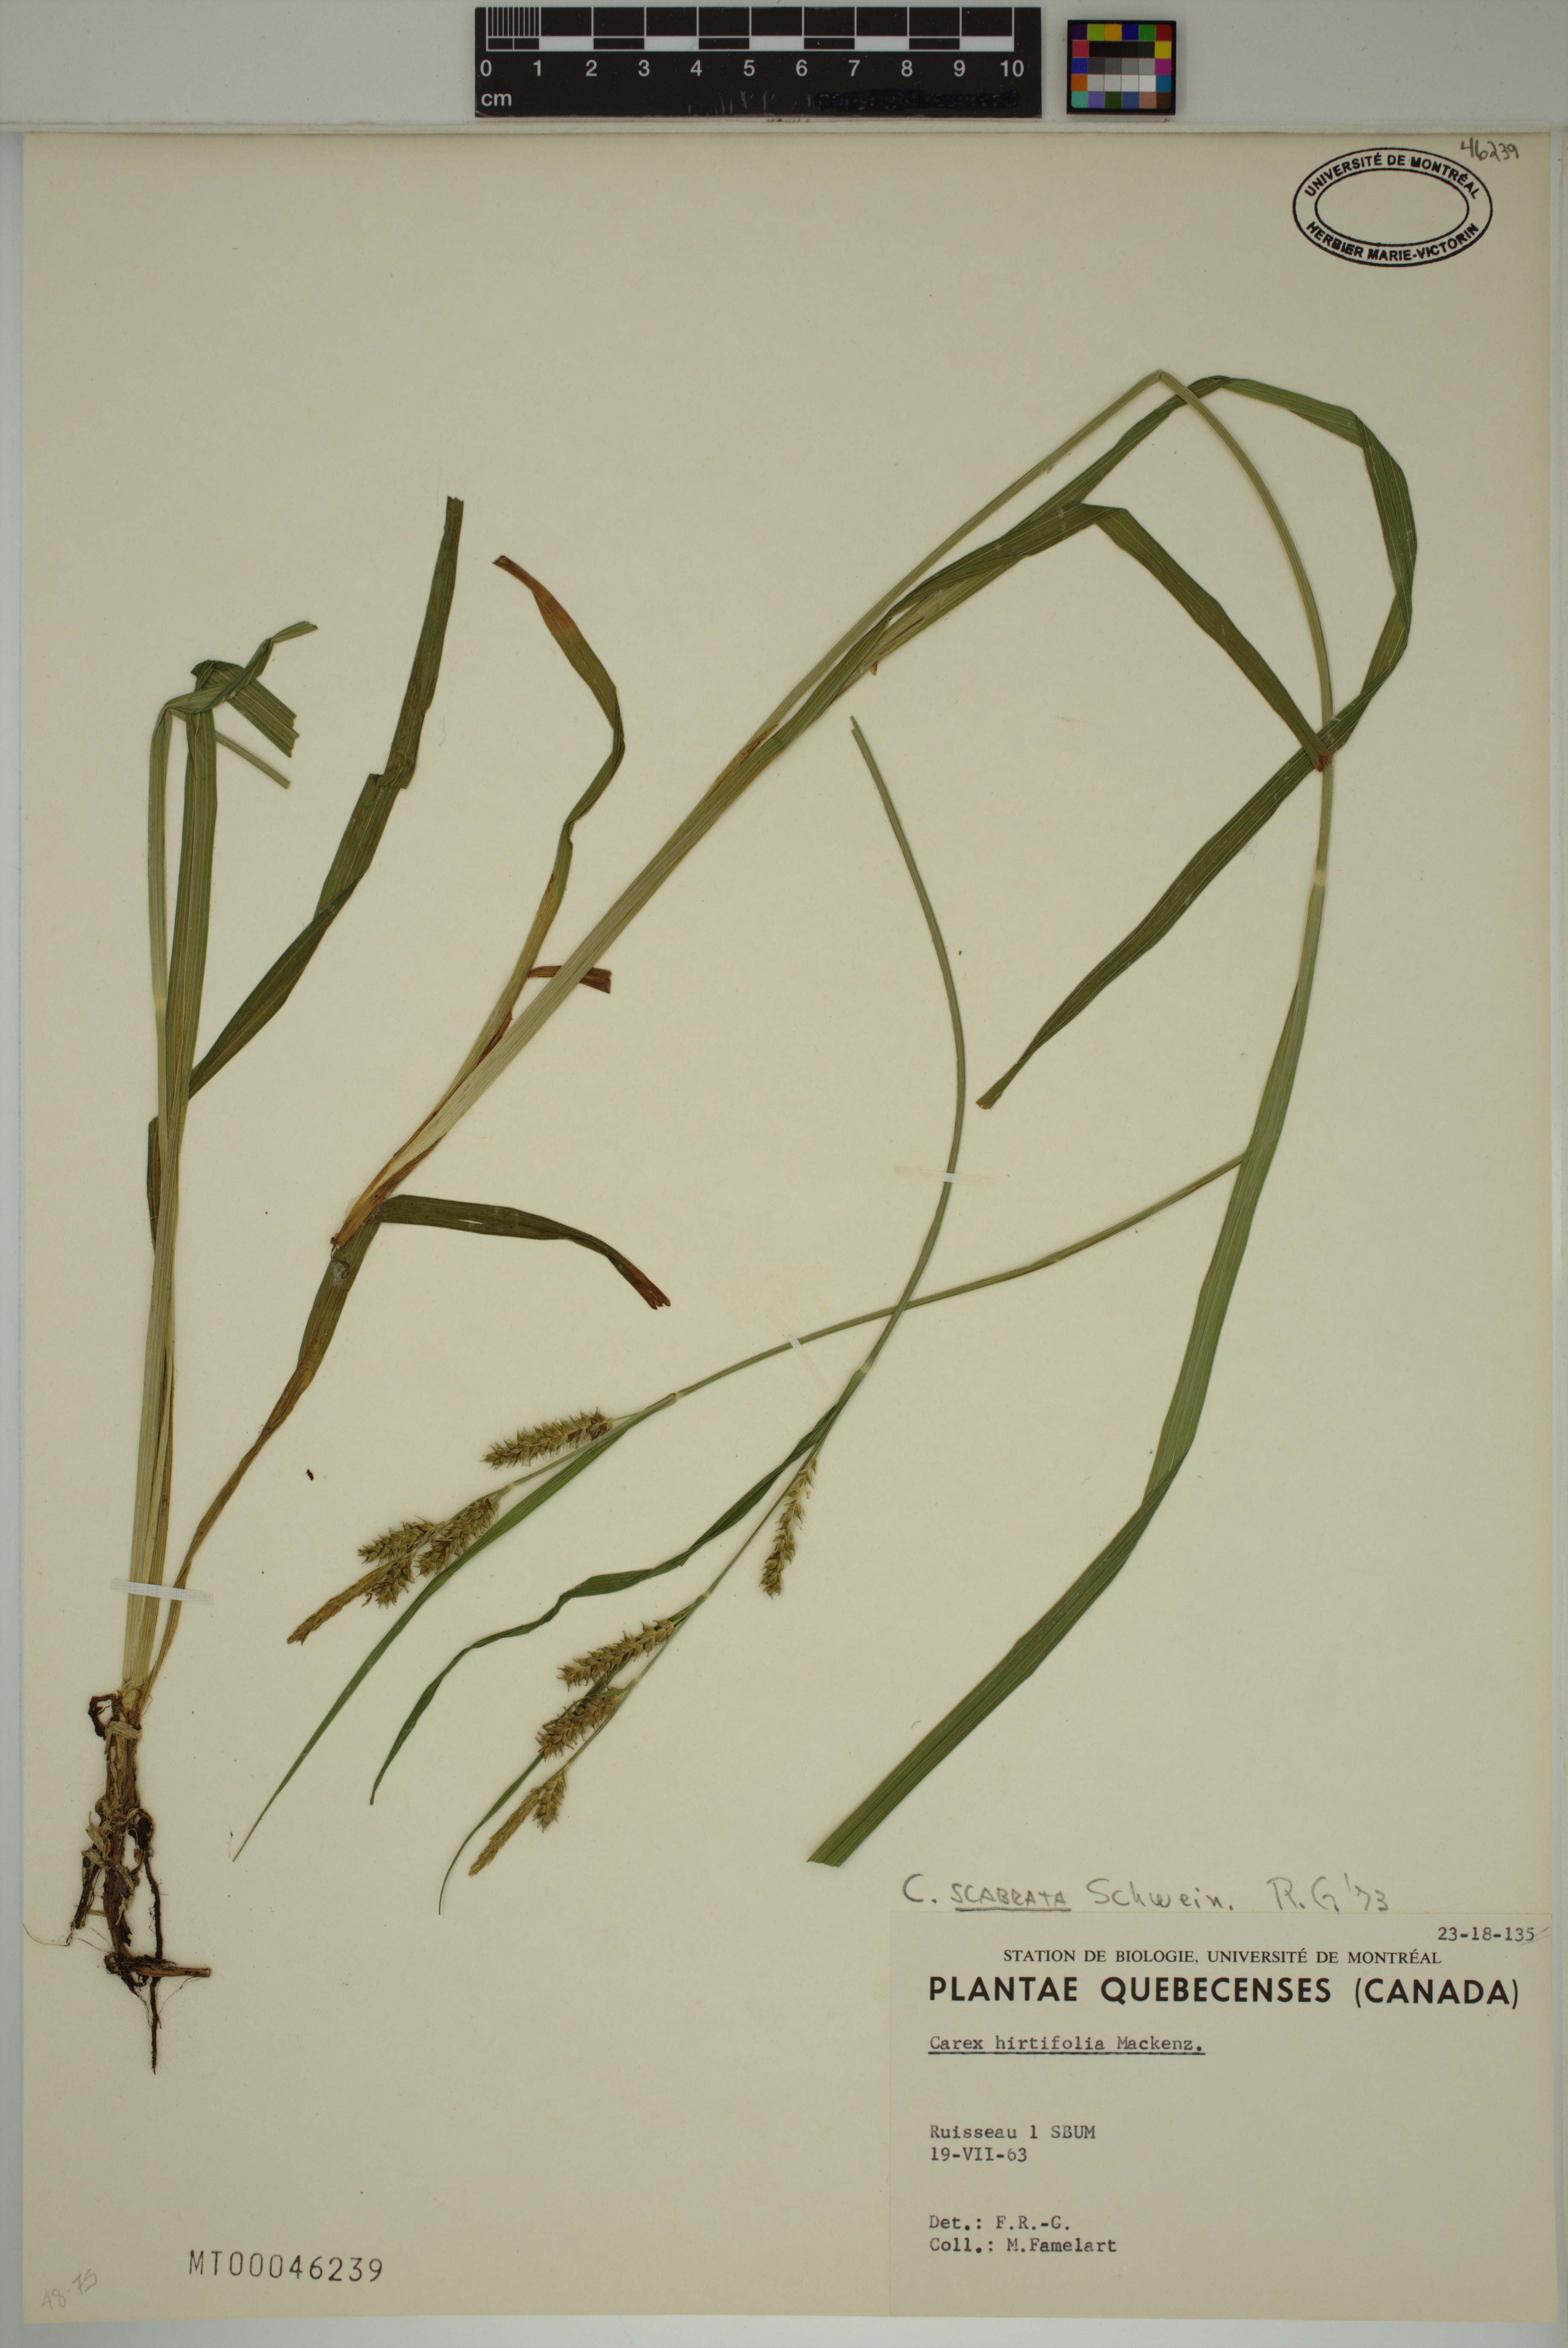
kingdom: Plantae
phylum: Tracheophyta
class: Liliopsida
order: Poales
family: Cyperaceae
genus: Carex
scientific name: Carex scabrata
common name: Eastern rough sedge
